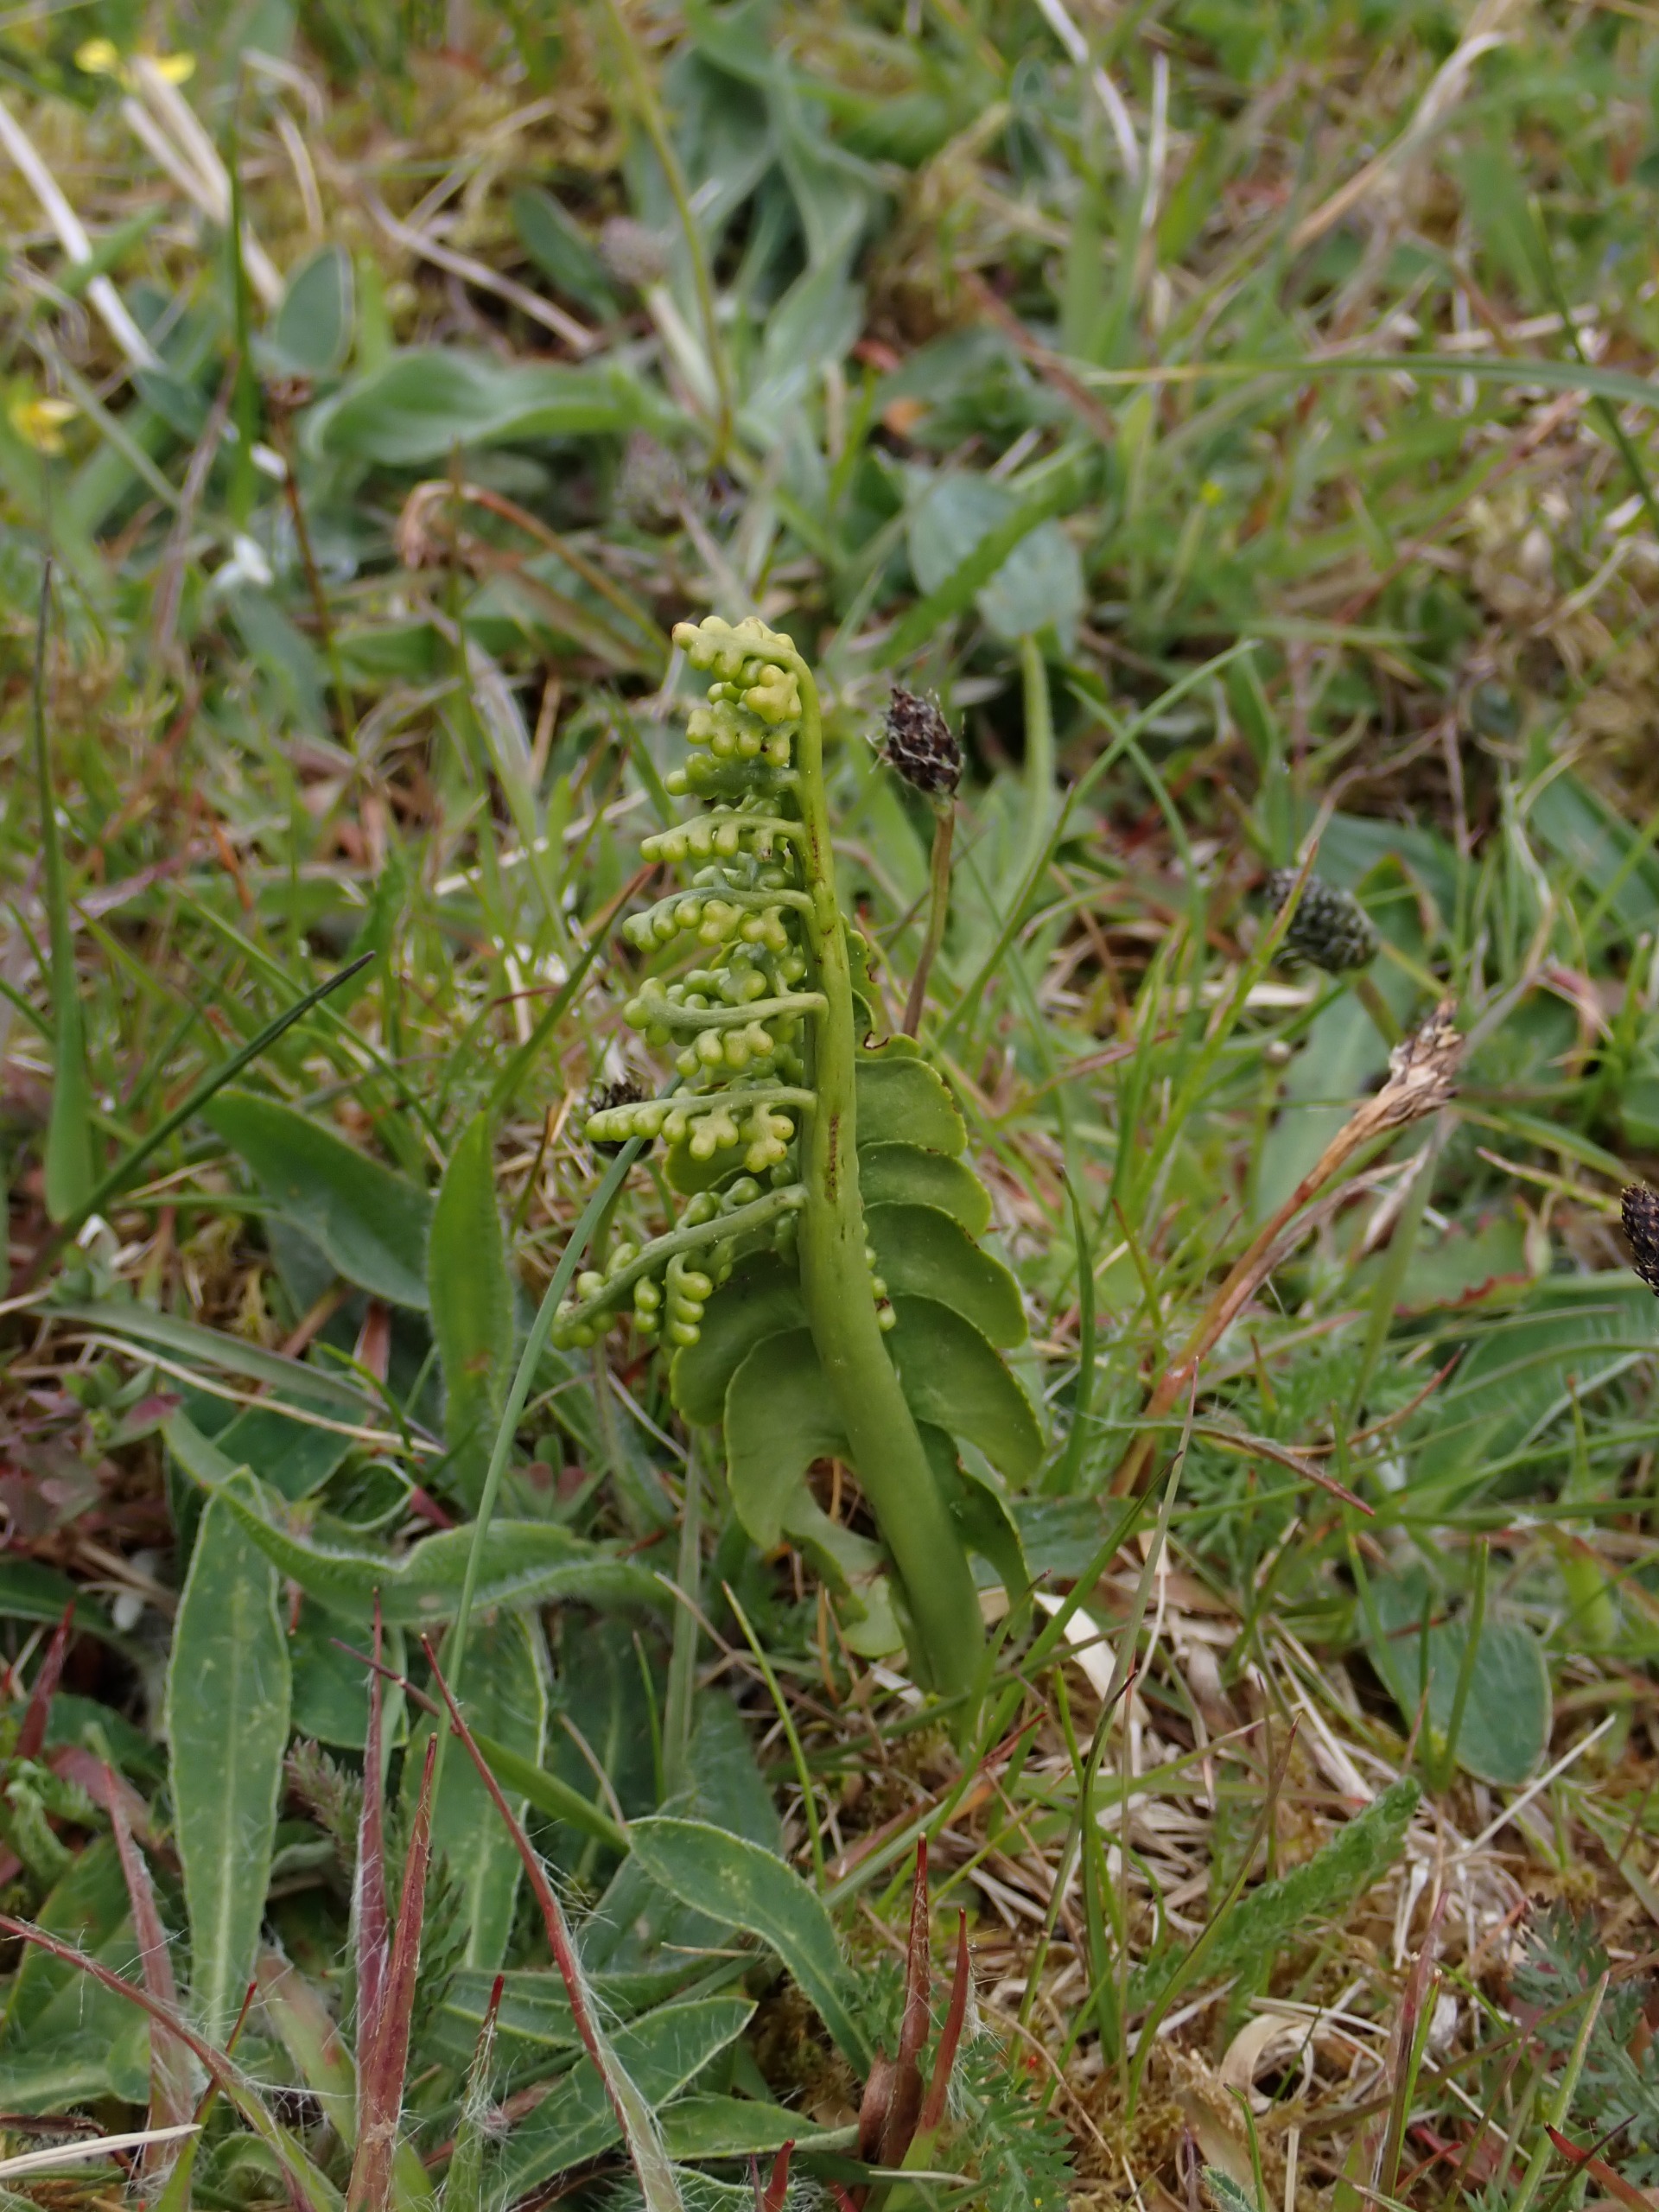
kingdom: Plantae
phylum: Tracheophyta
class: Polypodiopsida
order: Ophioglossales
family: Ophioglossaceae
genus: Botrychium
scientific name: Botrychium lunaria
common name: Almindelig månerude
